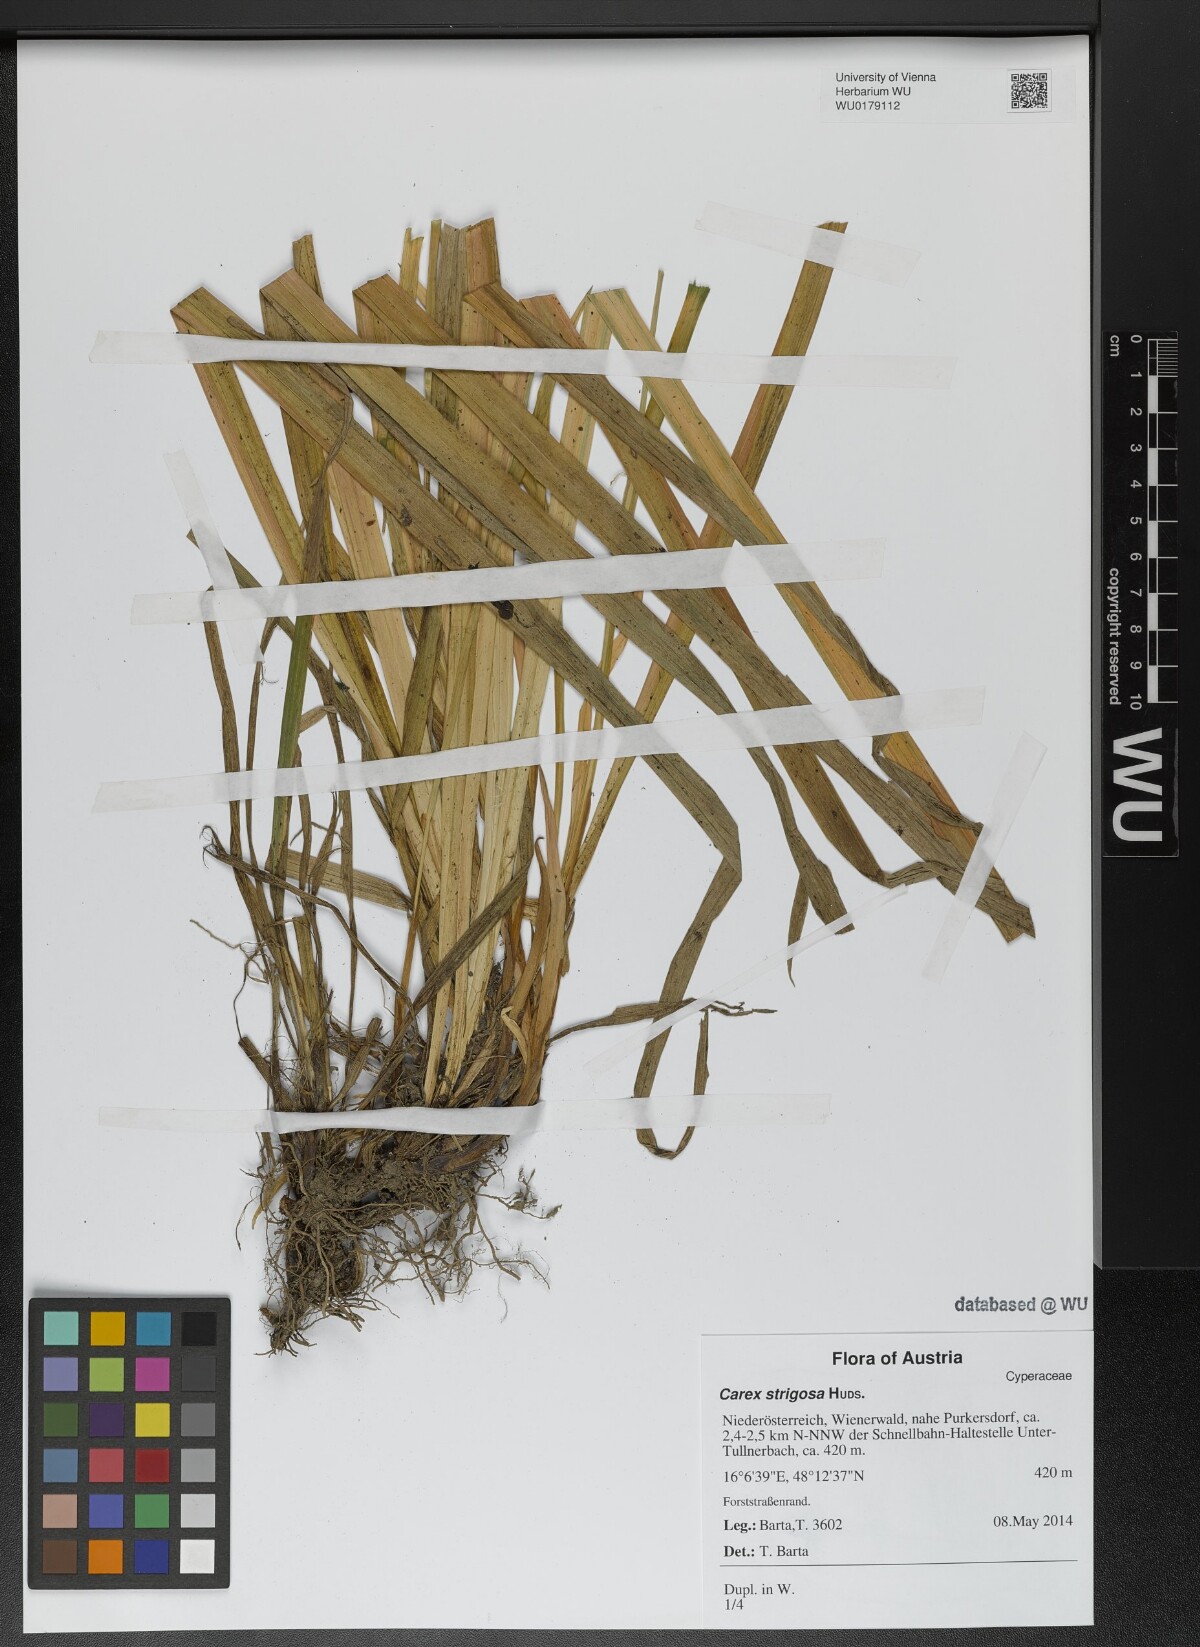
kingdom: Plantae
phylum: Tracheophyta
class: Liliopsida
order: Poales
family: Cyperaceae
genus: Carex
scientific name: Carex strigosa
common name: Thin-spiked wood-sedge
